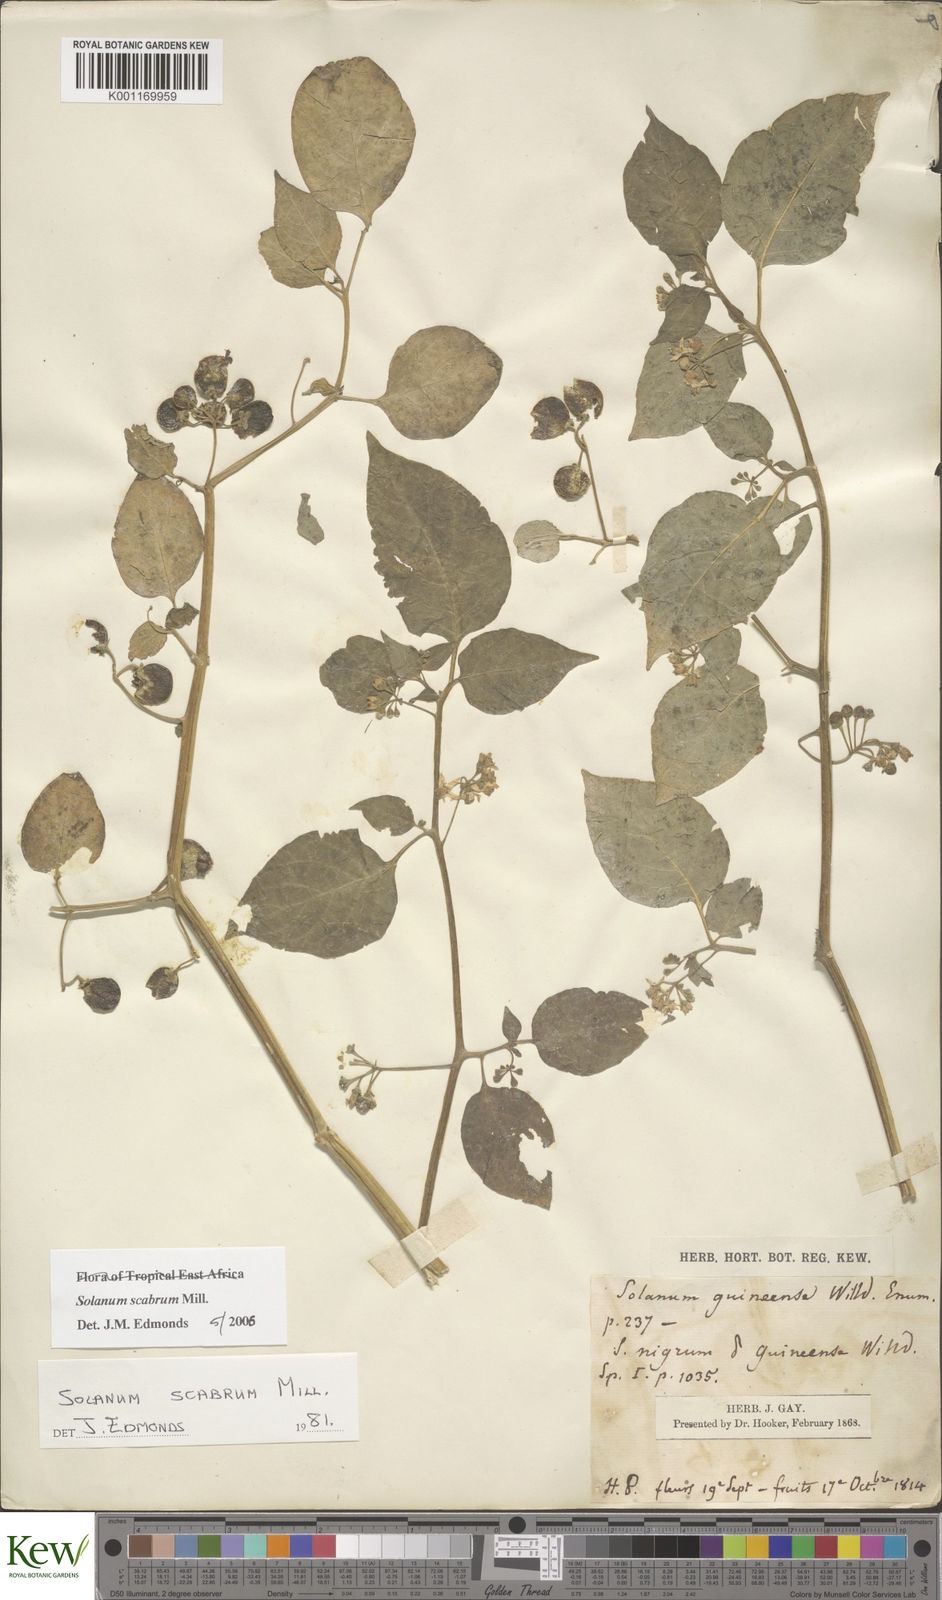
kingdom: Plantae
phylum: Tracheophyta
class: Magnoliopsida
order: Solanales
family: Solanaceae
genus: Solanum
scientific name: Solanum scabrum
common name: Garden-huckleberry
